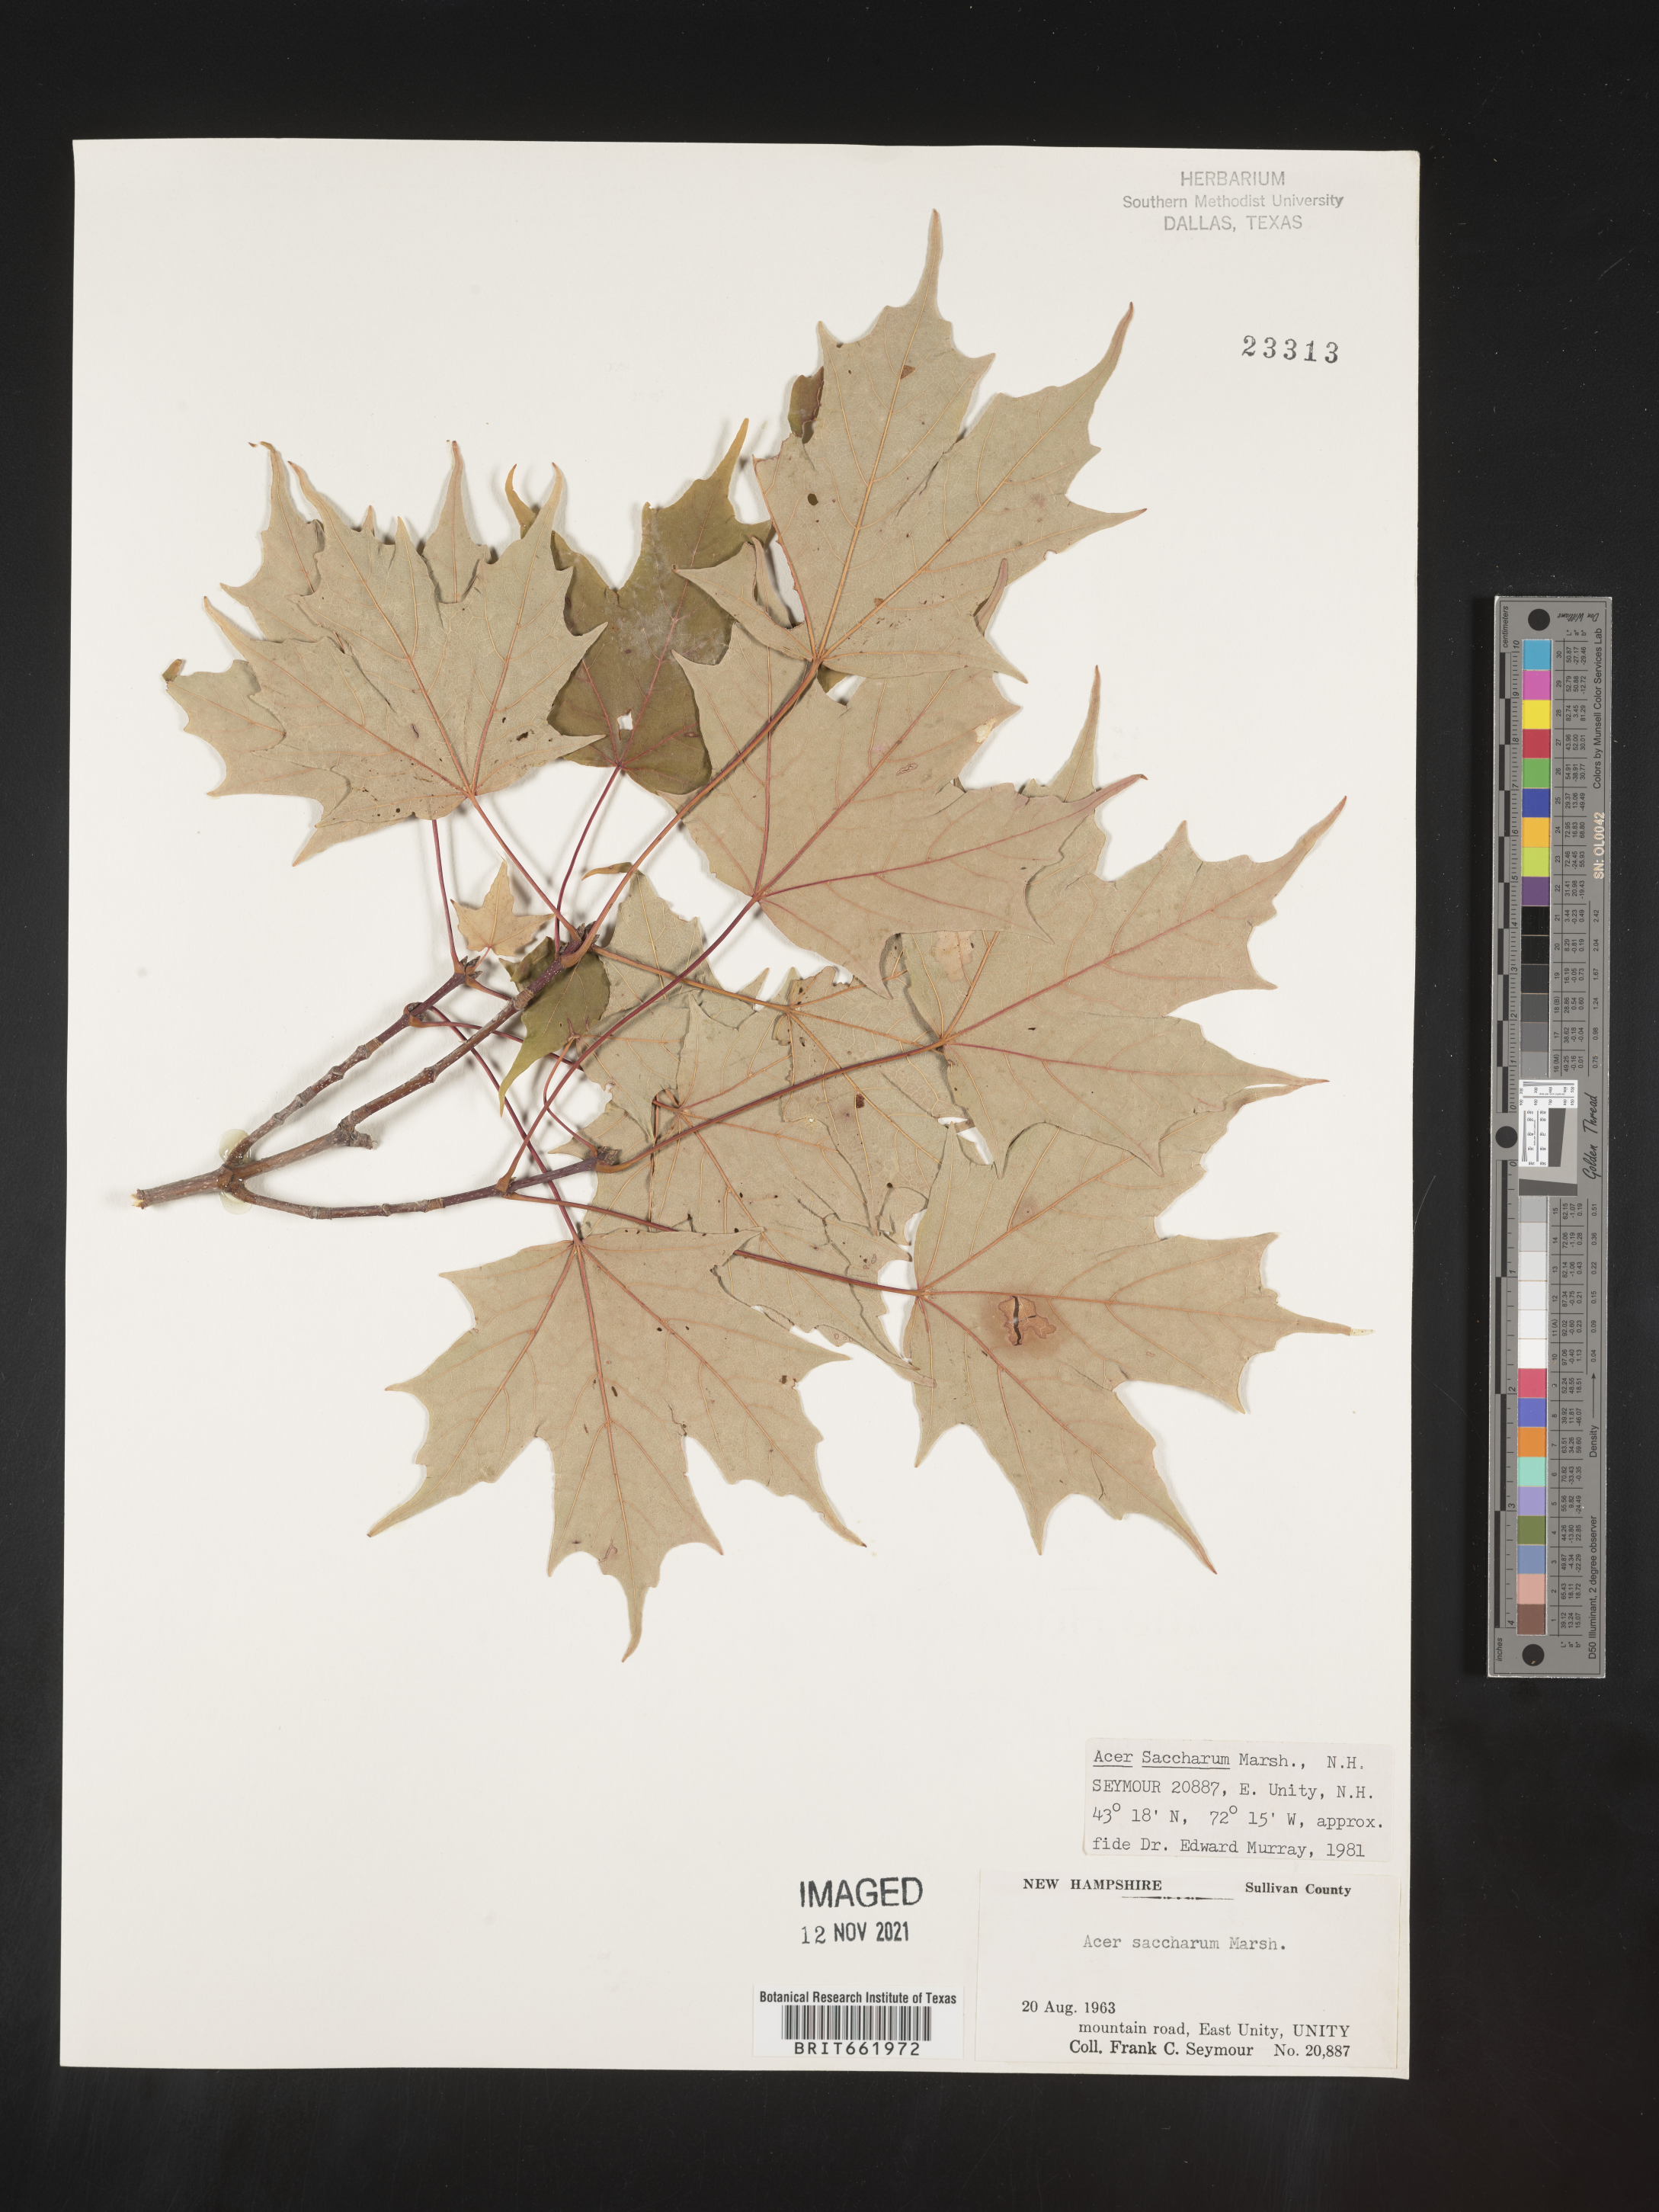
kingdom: Plantae
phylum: Tracheophyta
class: Magnoliopsida
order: Sapindales
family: Sapindaceae
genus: Acer
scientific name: Acer saccharum
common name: Sugar maple
